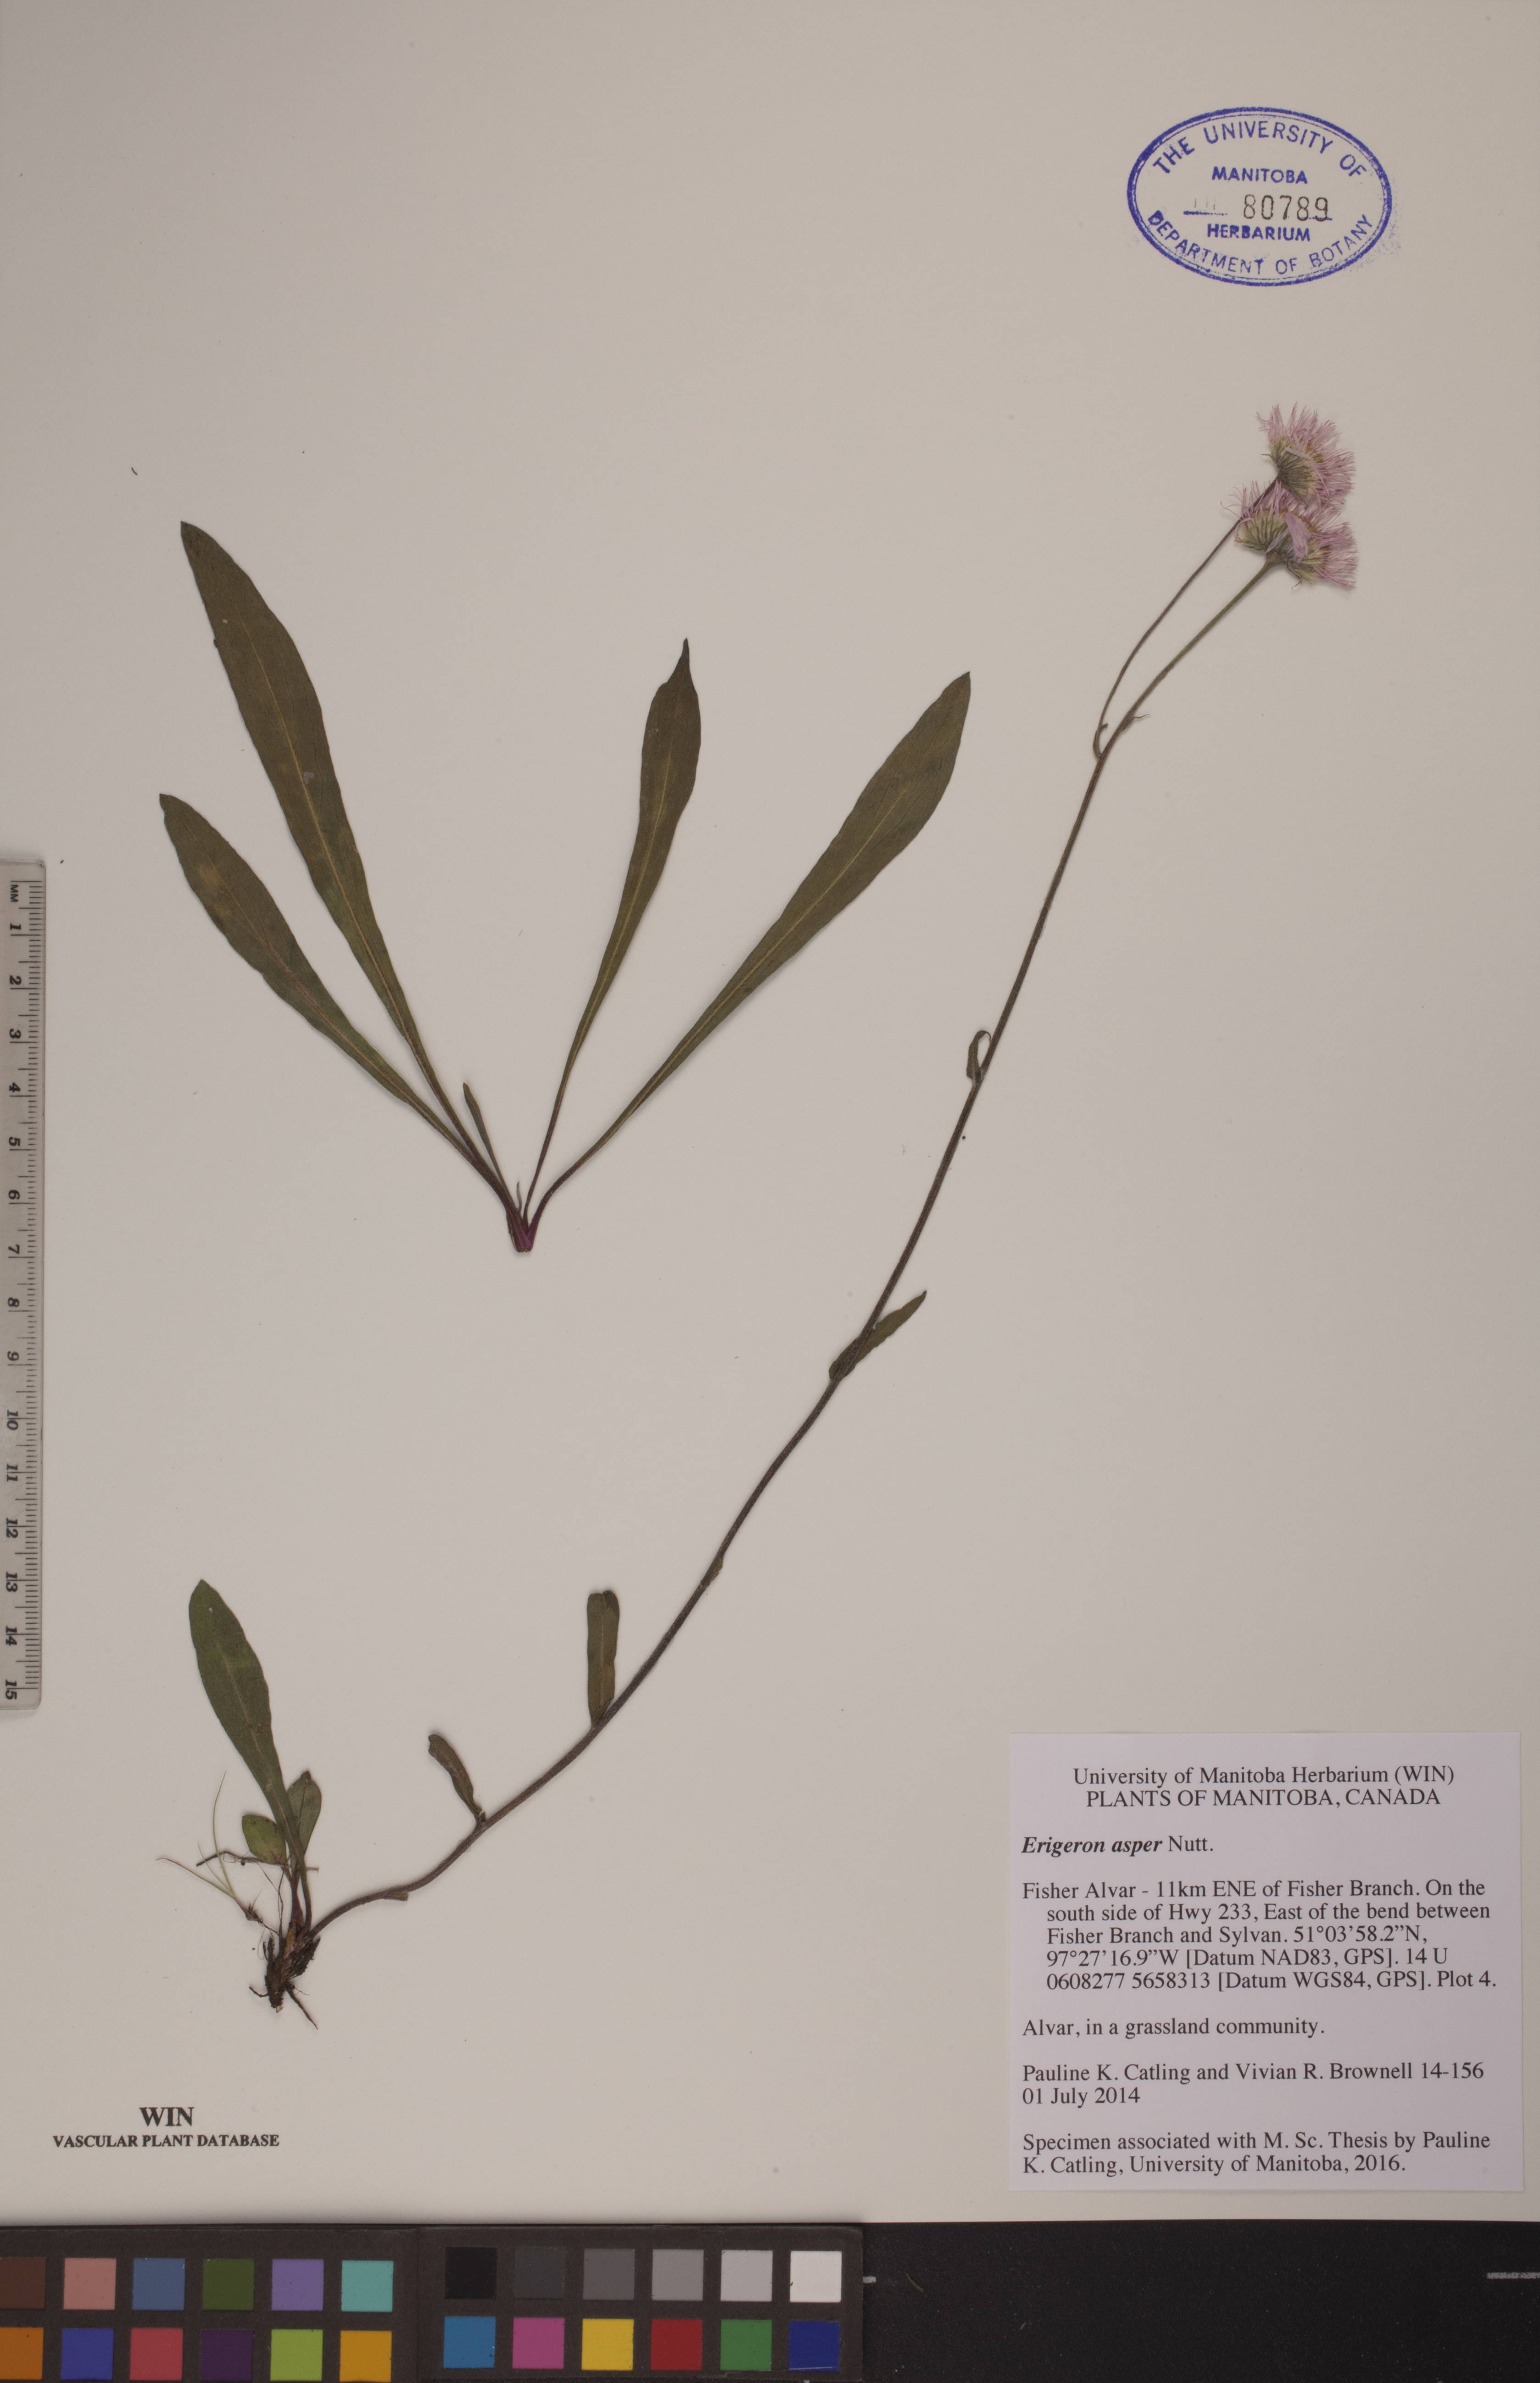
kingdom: Plantae
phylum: Tracheophyta
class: Magnoliopsida
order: Asterales
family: Asteraceae
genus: Erigeron
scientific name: Erigeron glabellus
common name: Smooth fleabane
